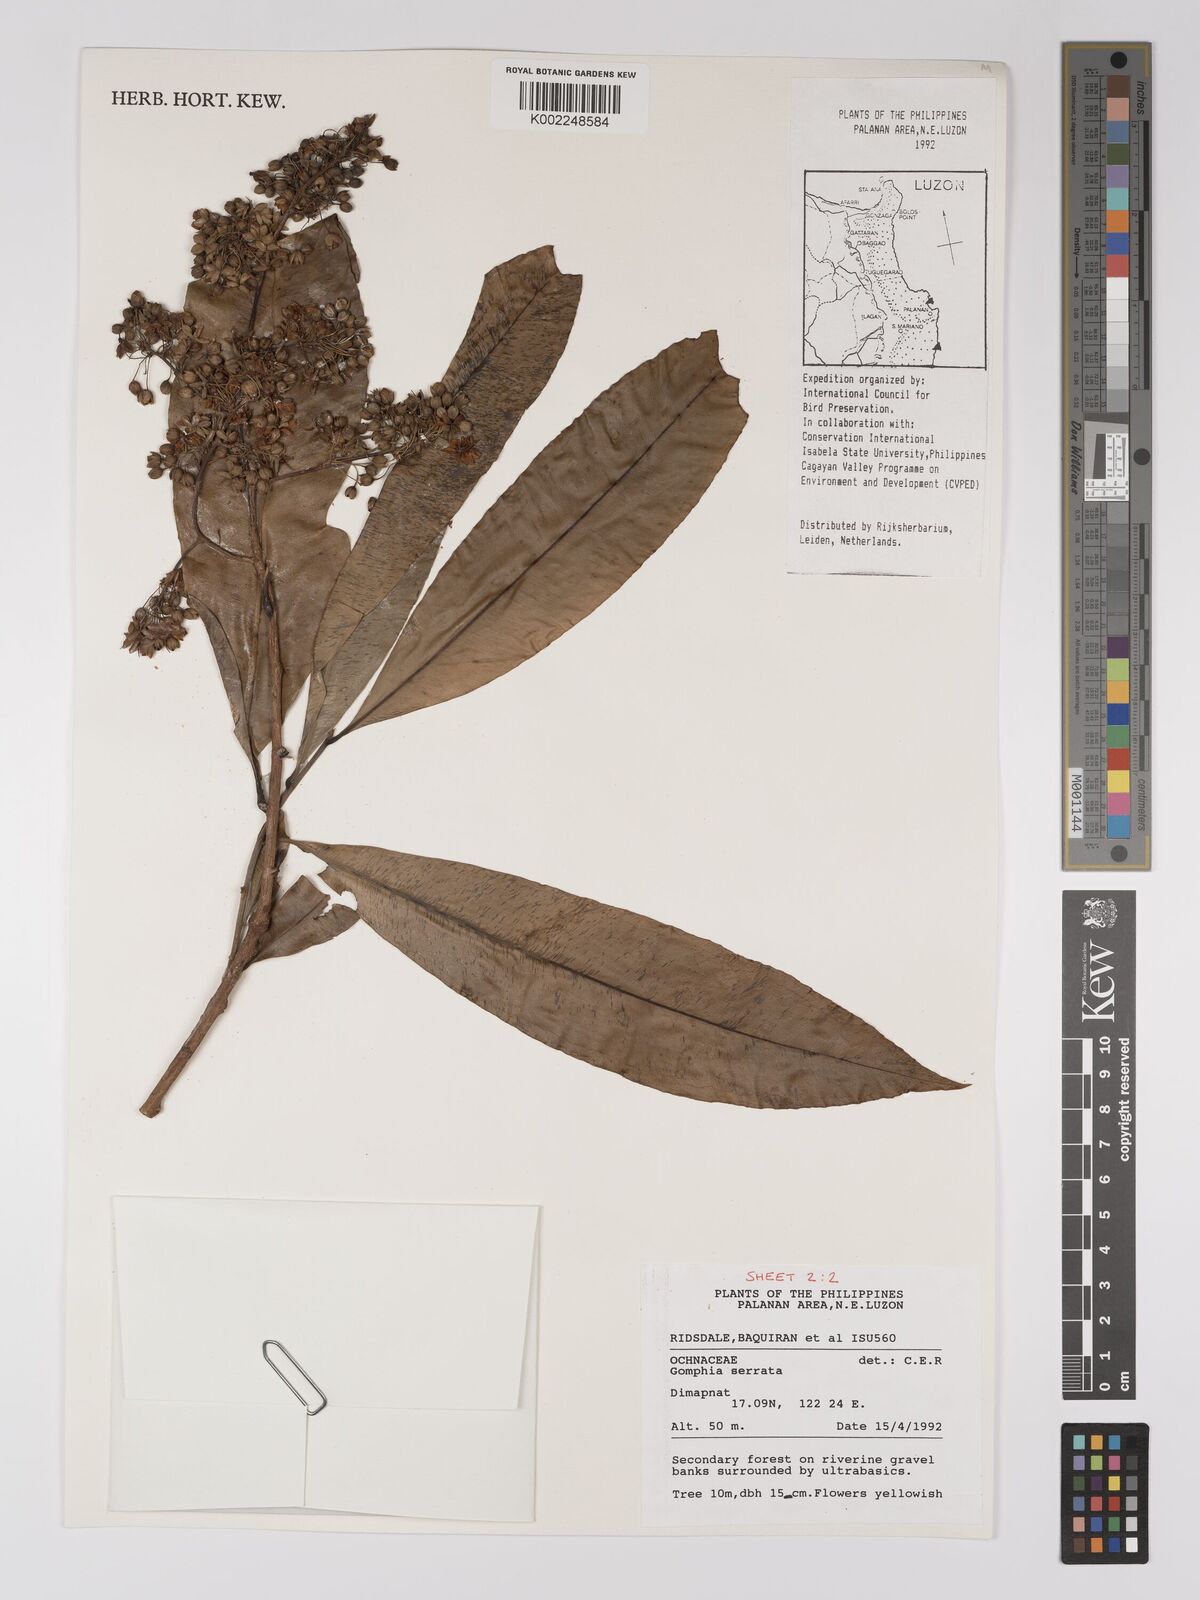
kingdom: Plantae
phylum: Tracheophyta
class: Magnoliopsida
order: Malpighiales
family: Ochnaceae
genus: Gomphia
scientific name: Gomphia serrata
